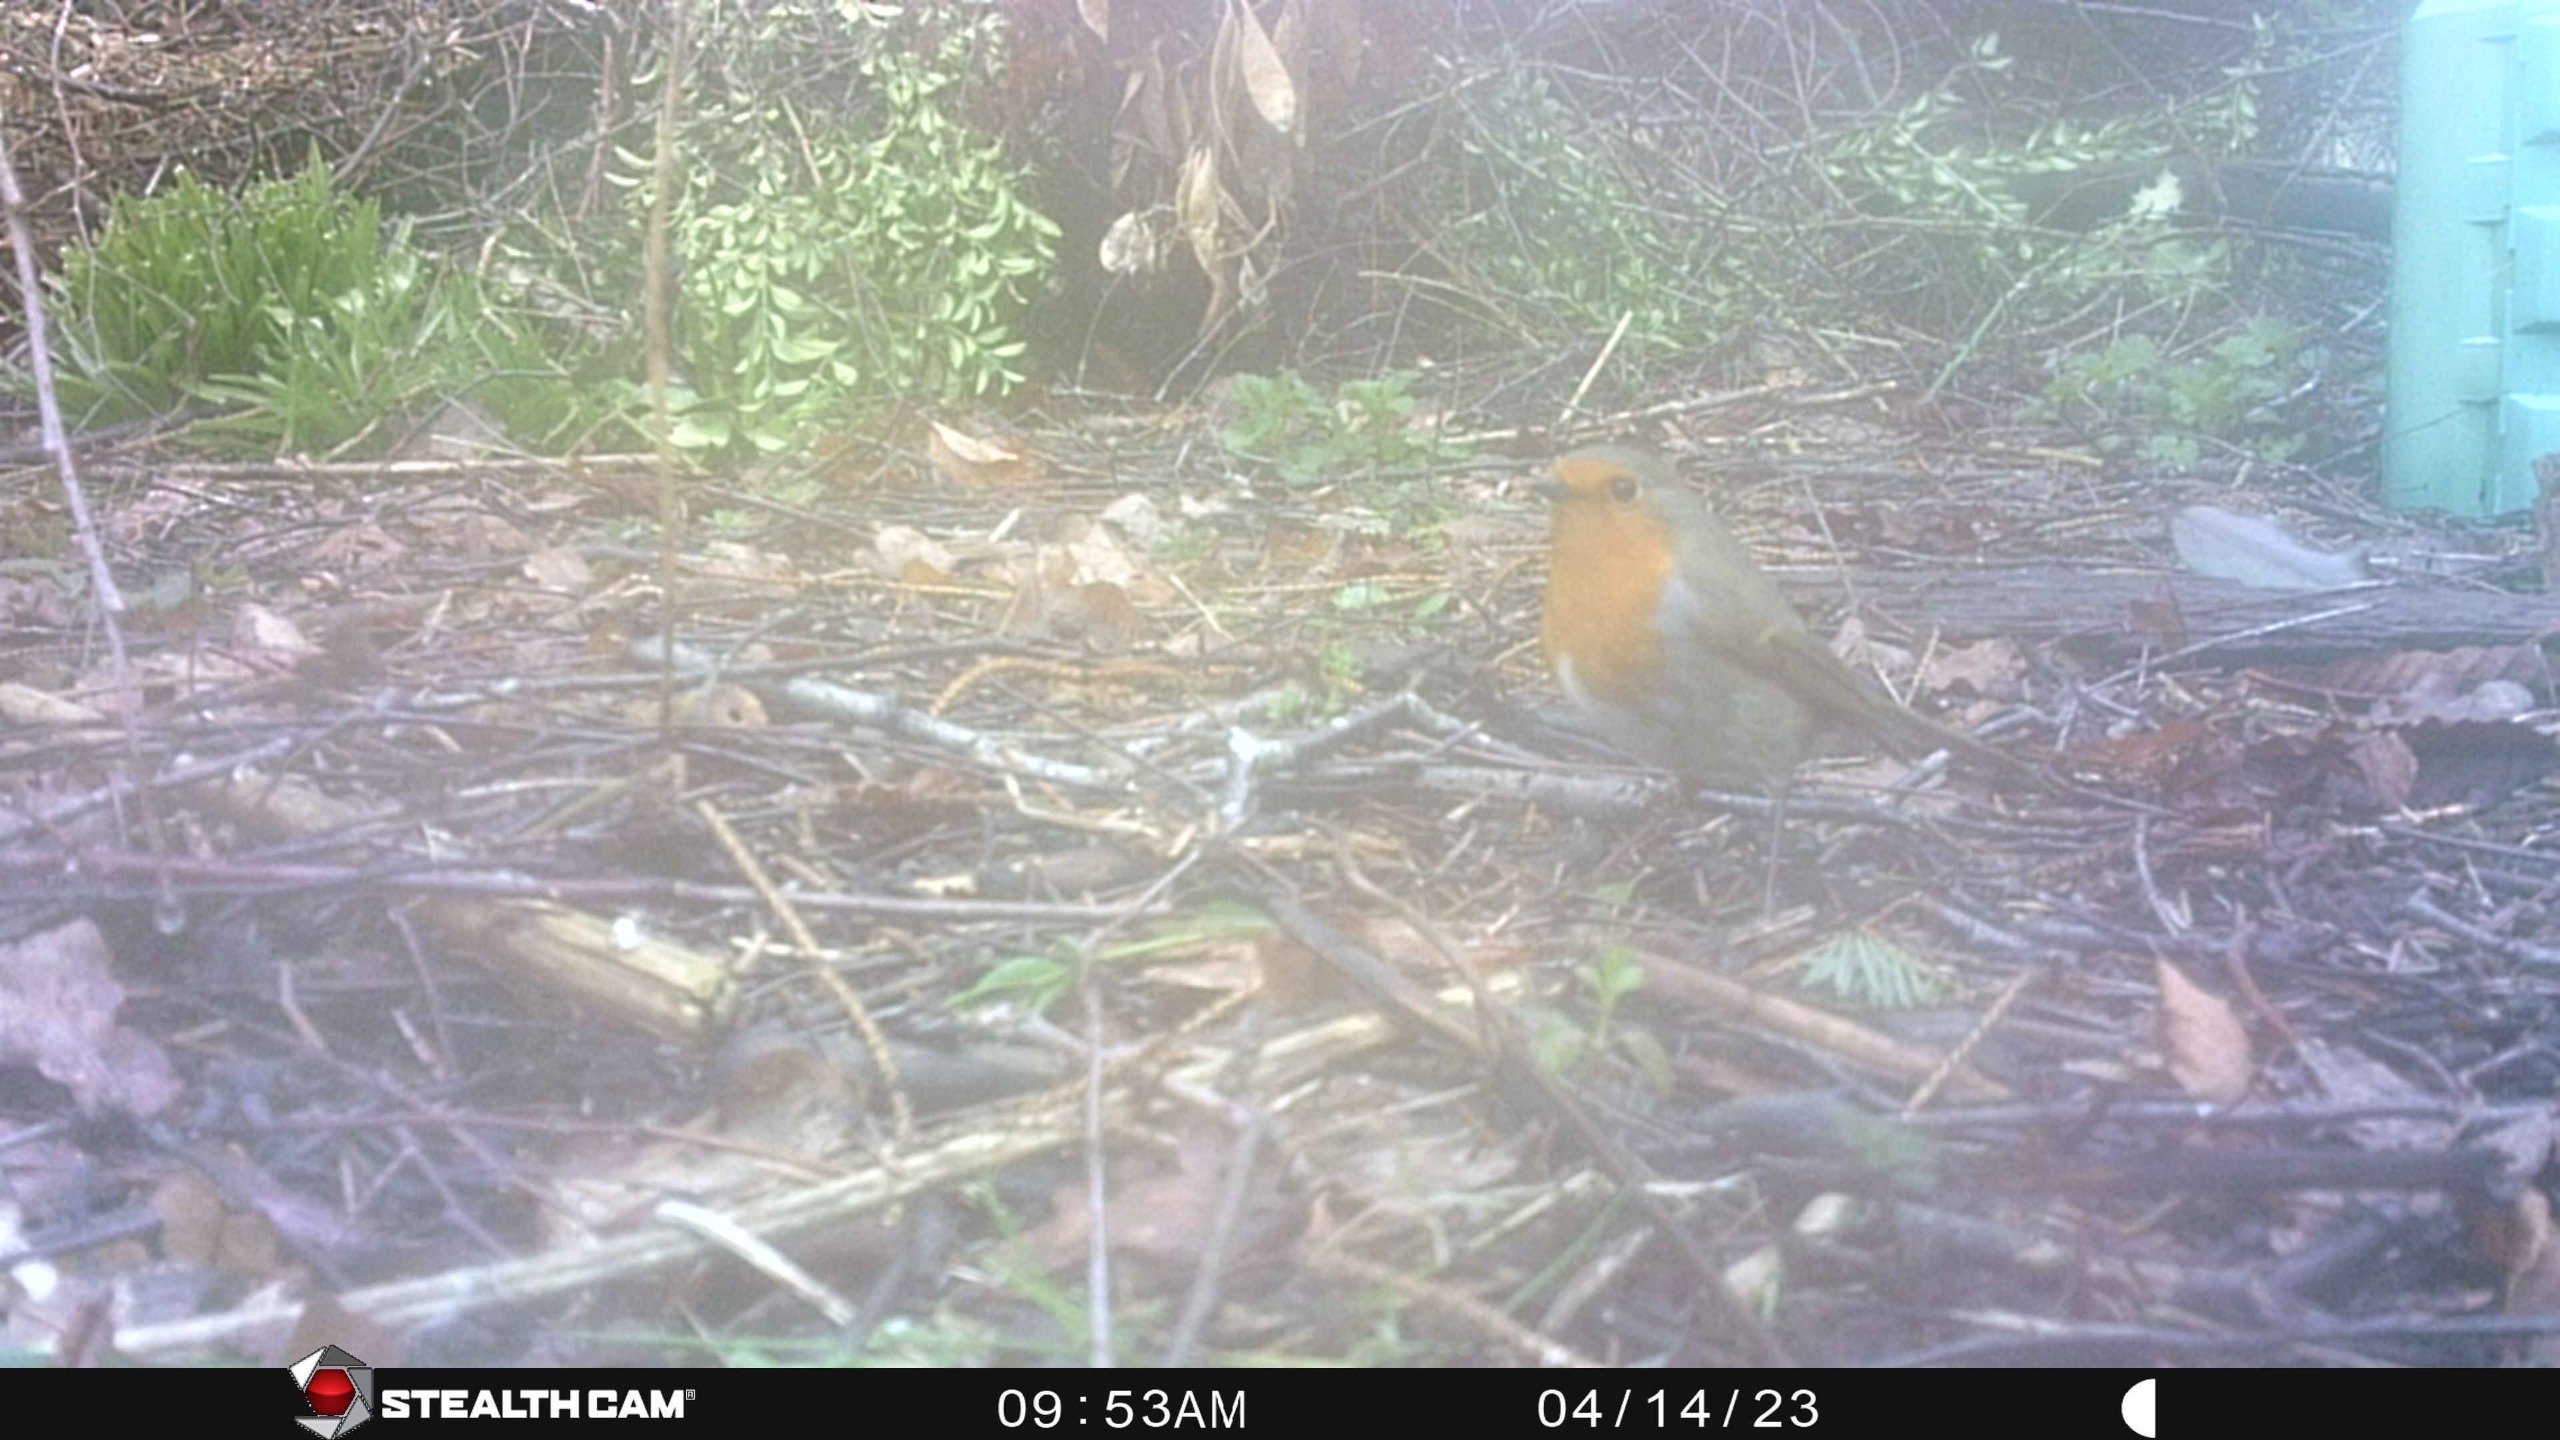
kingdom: Animalia
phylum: Chordata
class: Aves
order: Passeriformes
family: Muscicapidae
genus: Erithacus
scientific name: Erithacus rubecula
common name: Rødhals/rødkælk
